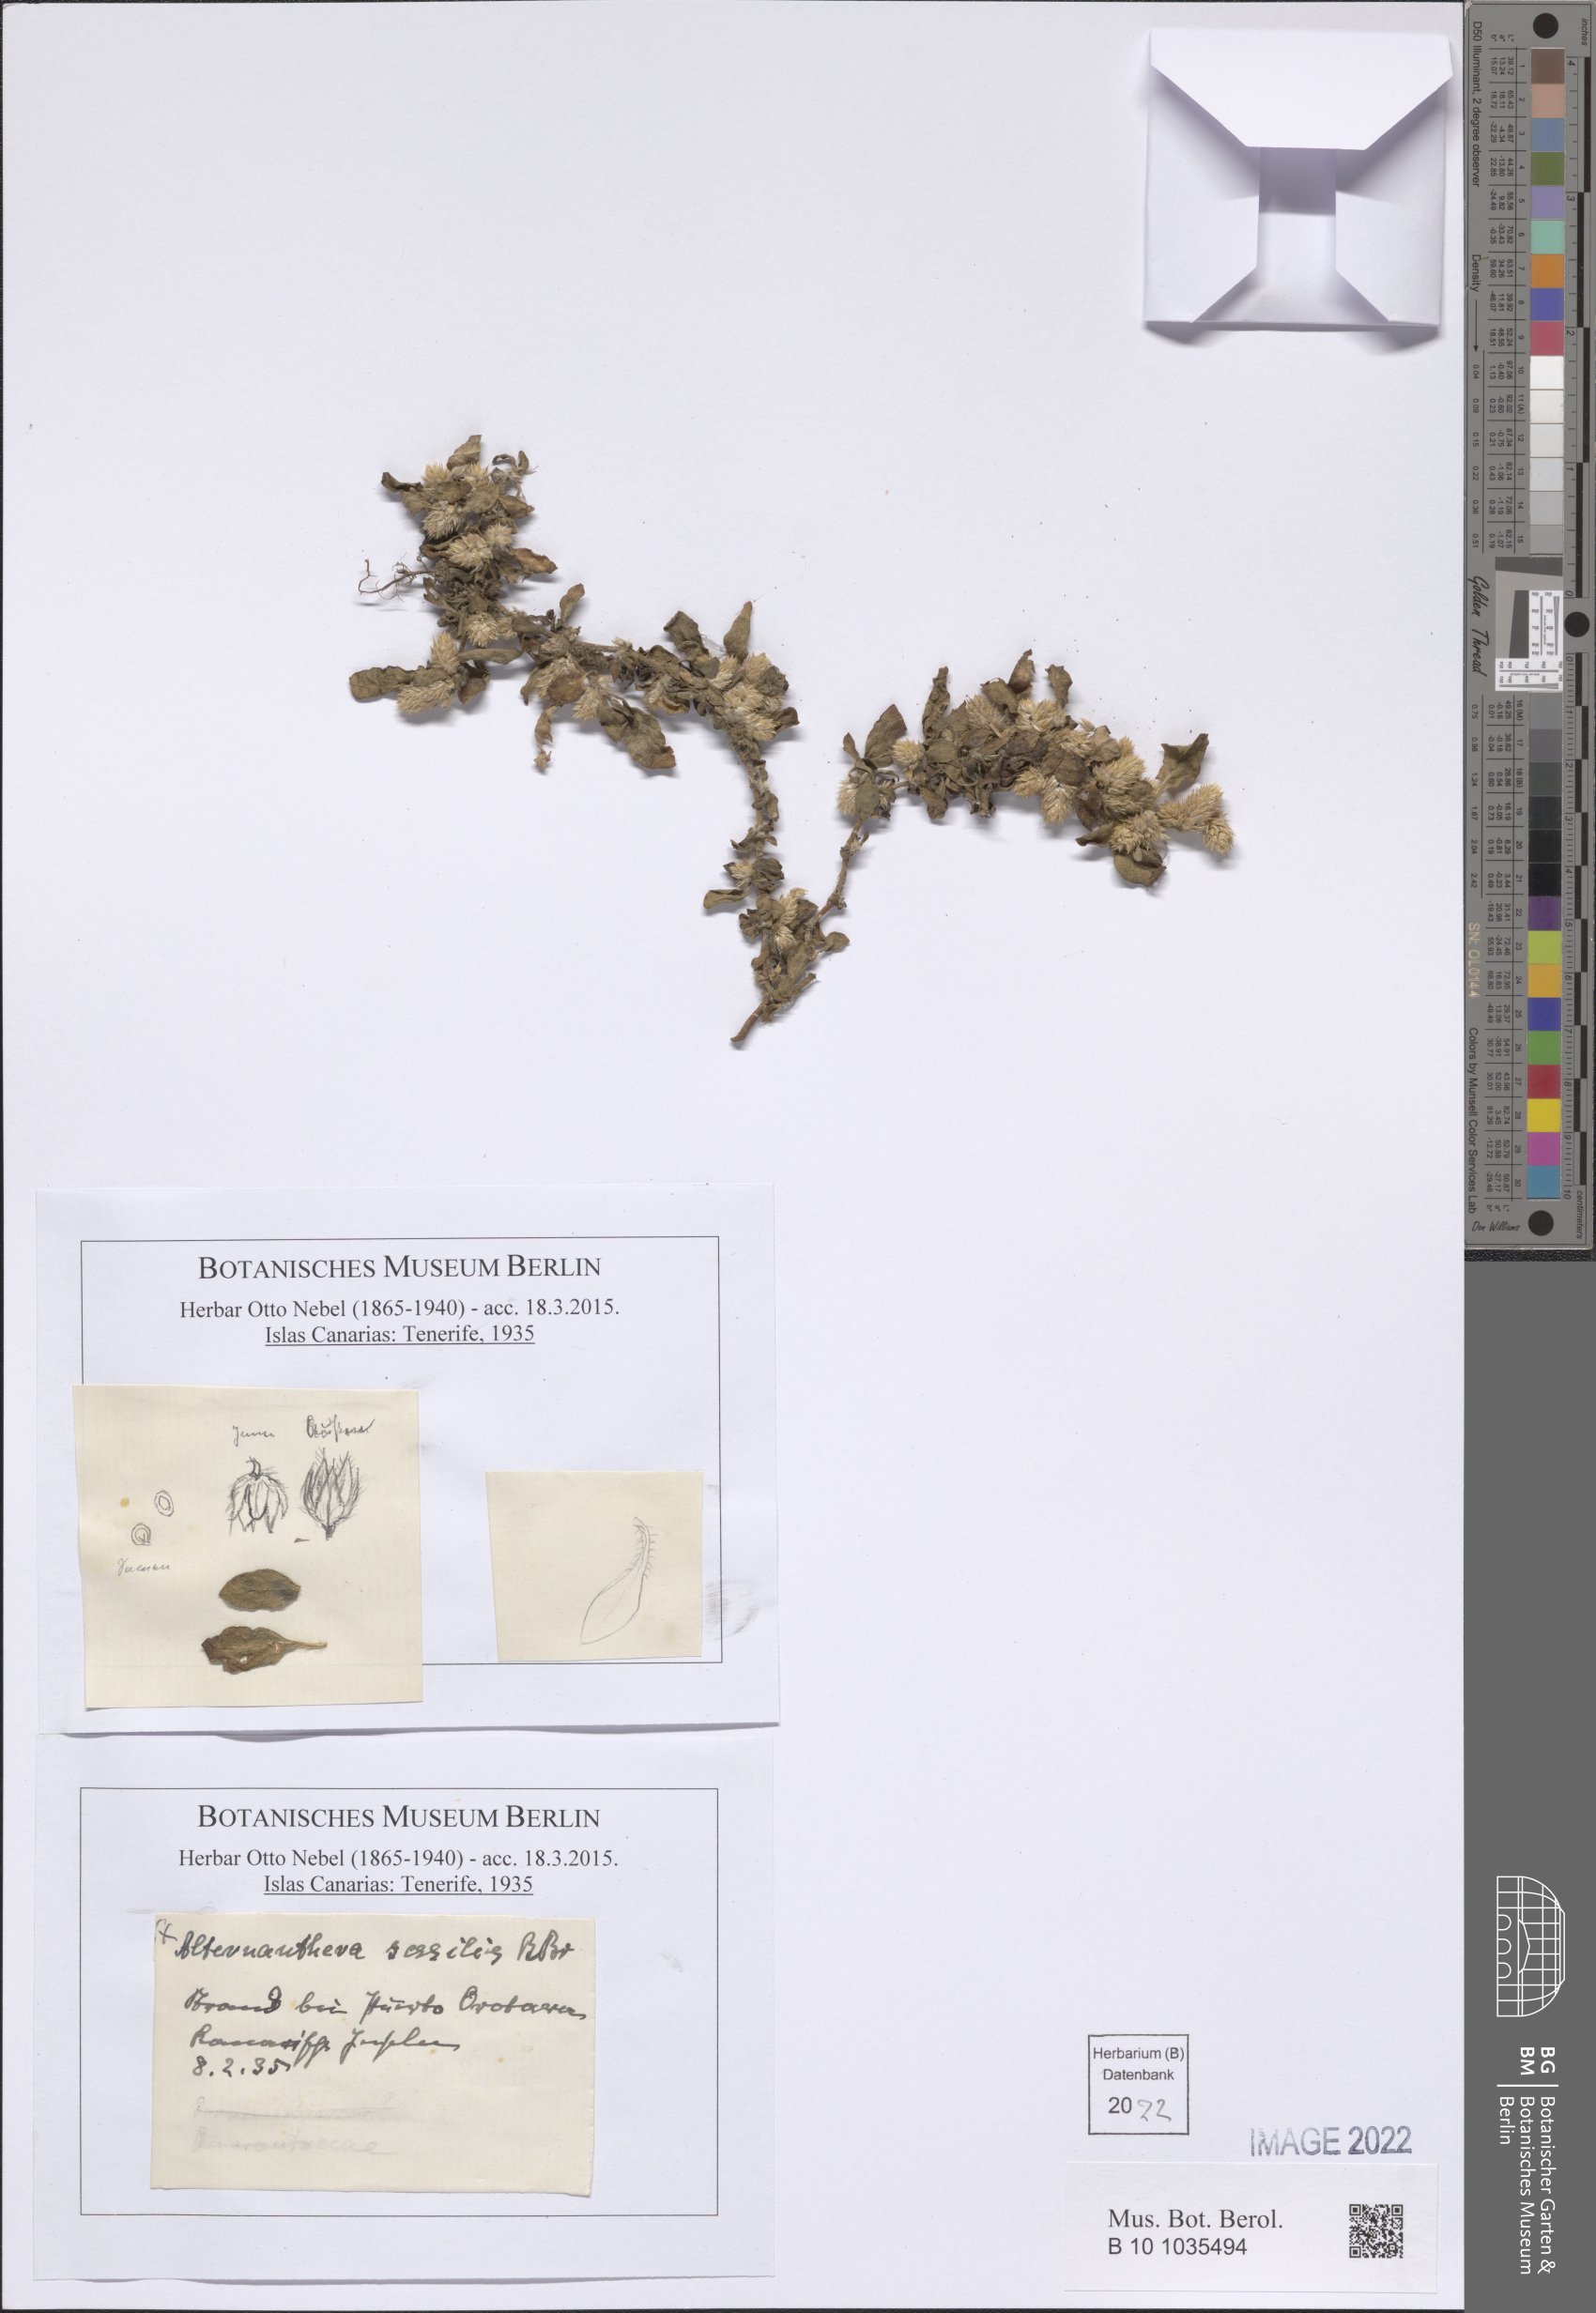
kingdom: Plantae
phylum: Tracheophyta
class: Magnoliopsida
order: Caryophyllales
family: Amaranthaceae
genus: Alternanthera
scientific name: Alternanthera sessilis
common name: Sessile joyweed
